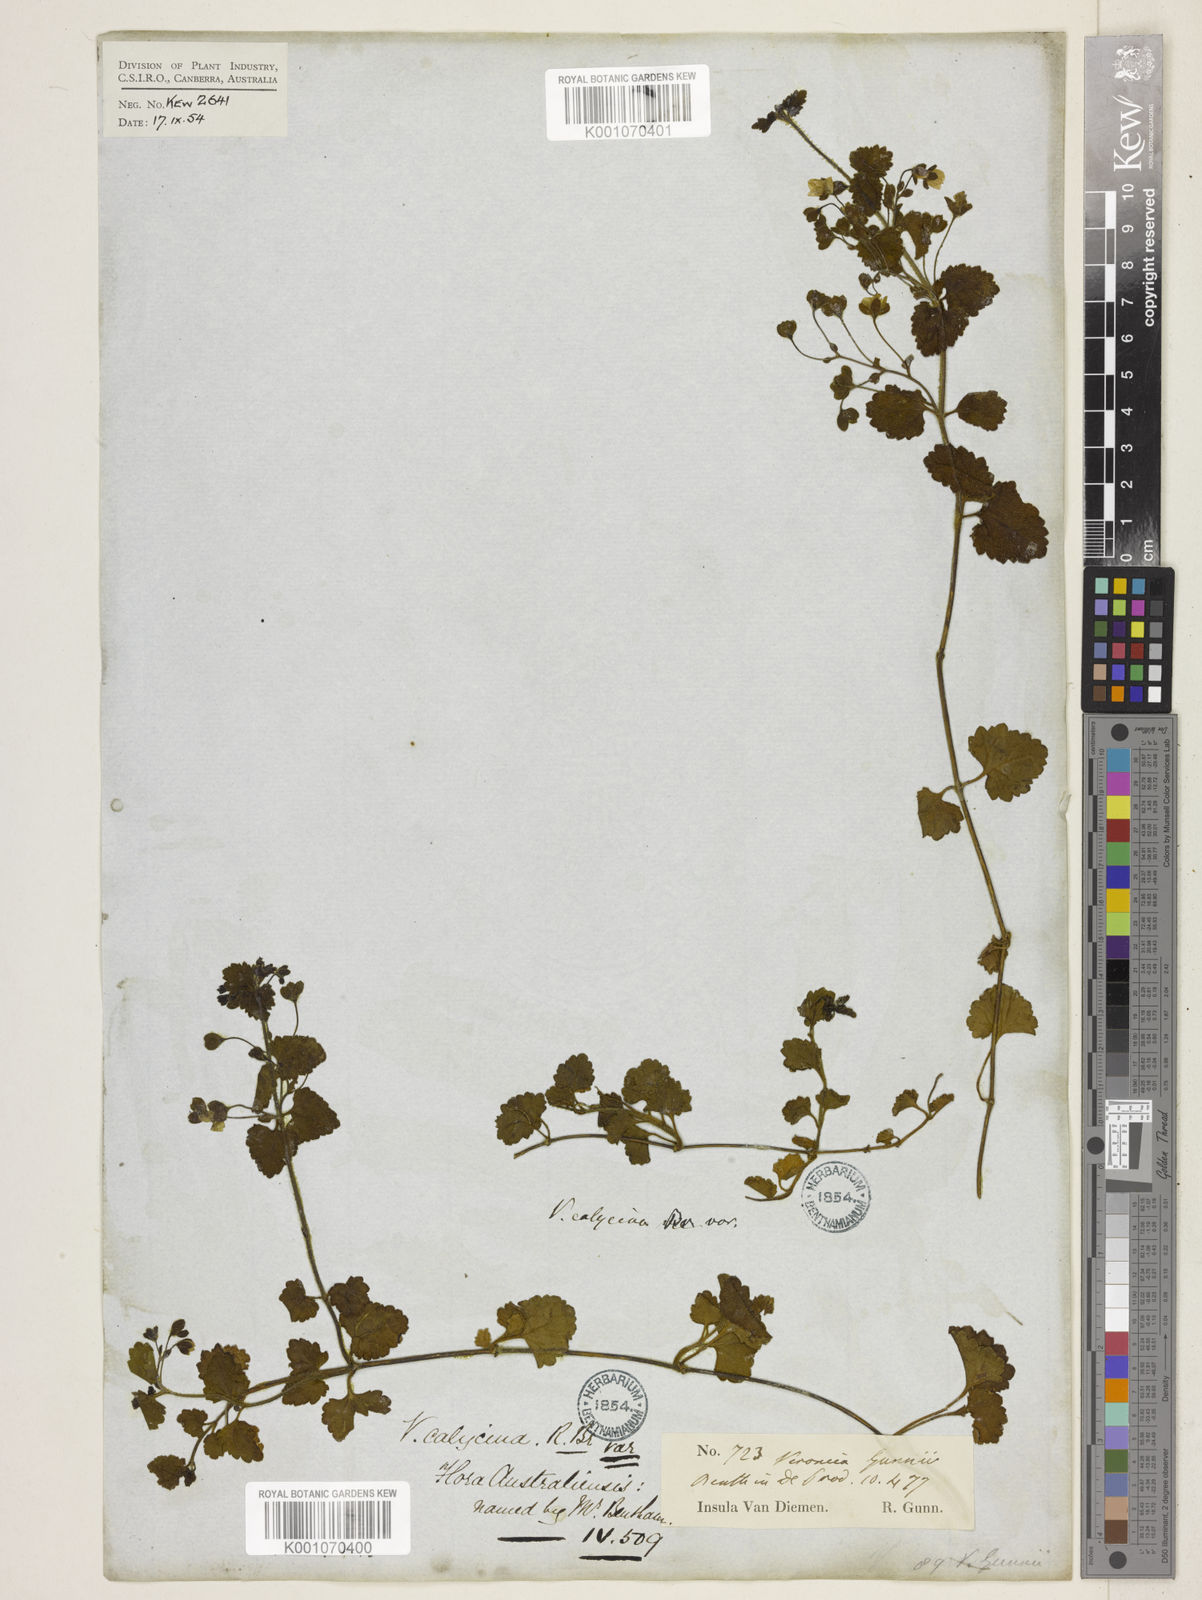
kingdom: Plantae
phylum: Tracheophyta
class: Magnoliopsida
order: Lamiales
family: Plantaginaceae
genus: Veronica
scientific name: Veronica calycina
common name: Cup speedwell
